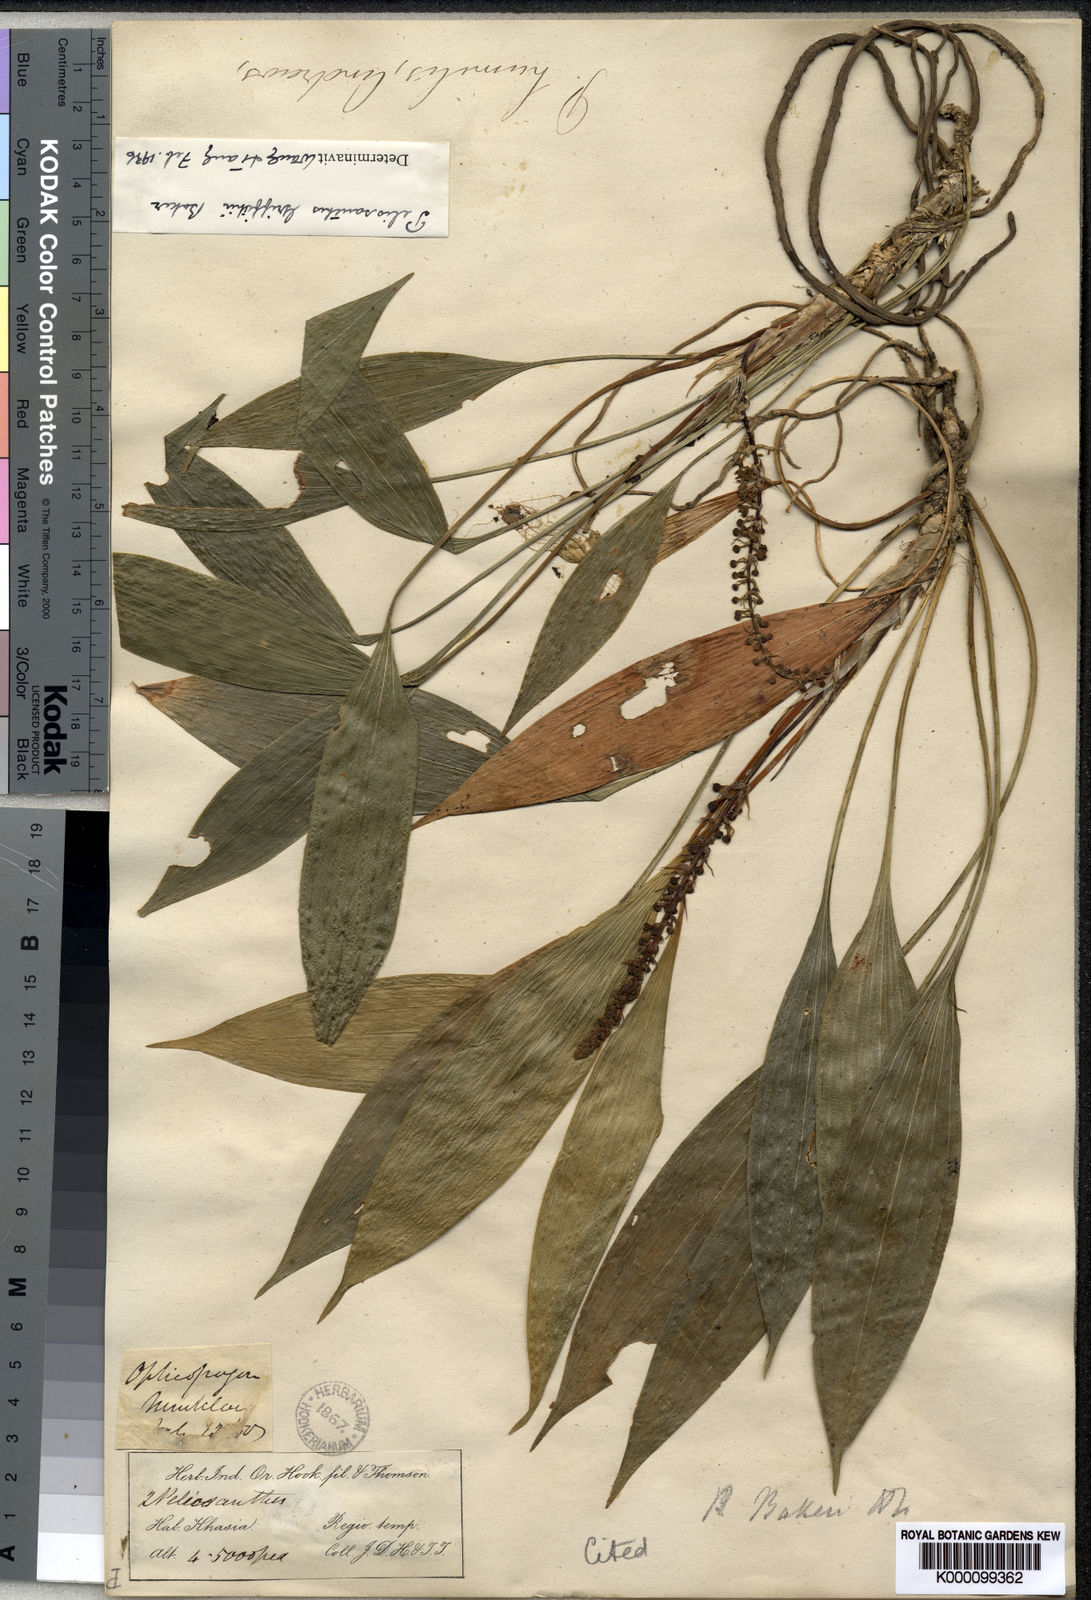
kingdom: Plantae
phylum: Tracheophyta
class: Liliopsida
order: Asparagales
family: Asparagaceae
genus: Peliosanthes
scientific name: Peliosanthes griffithii
